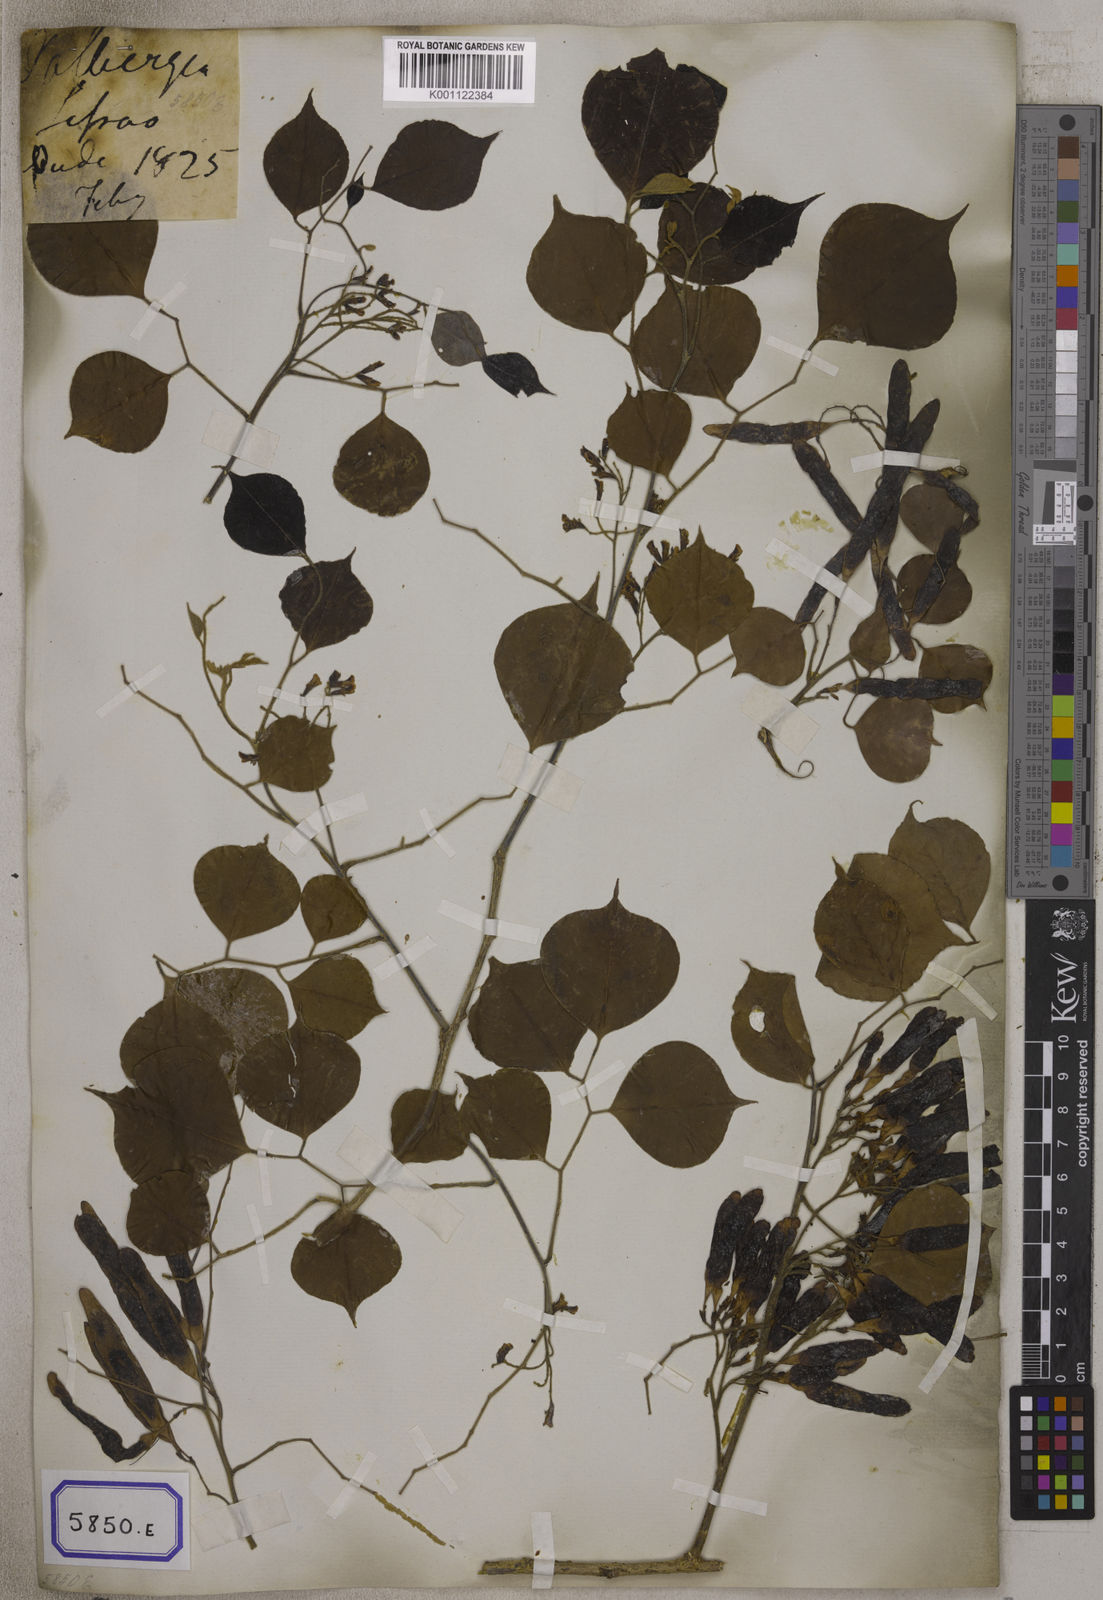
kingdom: Plantae
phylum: Tracheophyta
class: Magnoliopsida
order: Fabales
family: Fabaceae
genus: Dalbergia
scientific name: Dalbergia
